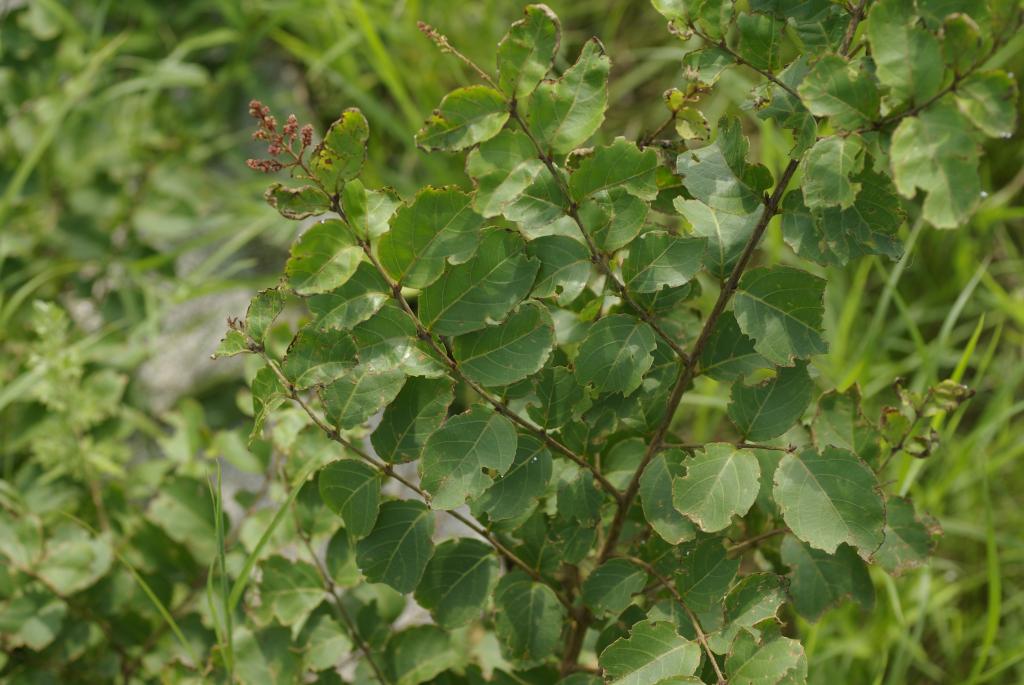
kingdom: Plantae
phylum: Tracheophyta
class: Magnoliopsida
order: Myrtales
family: Lythraceae
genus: Lagerstroemia
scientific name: Lagerstroemia subcostata
